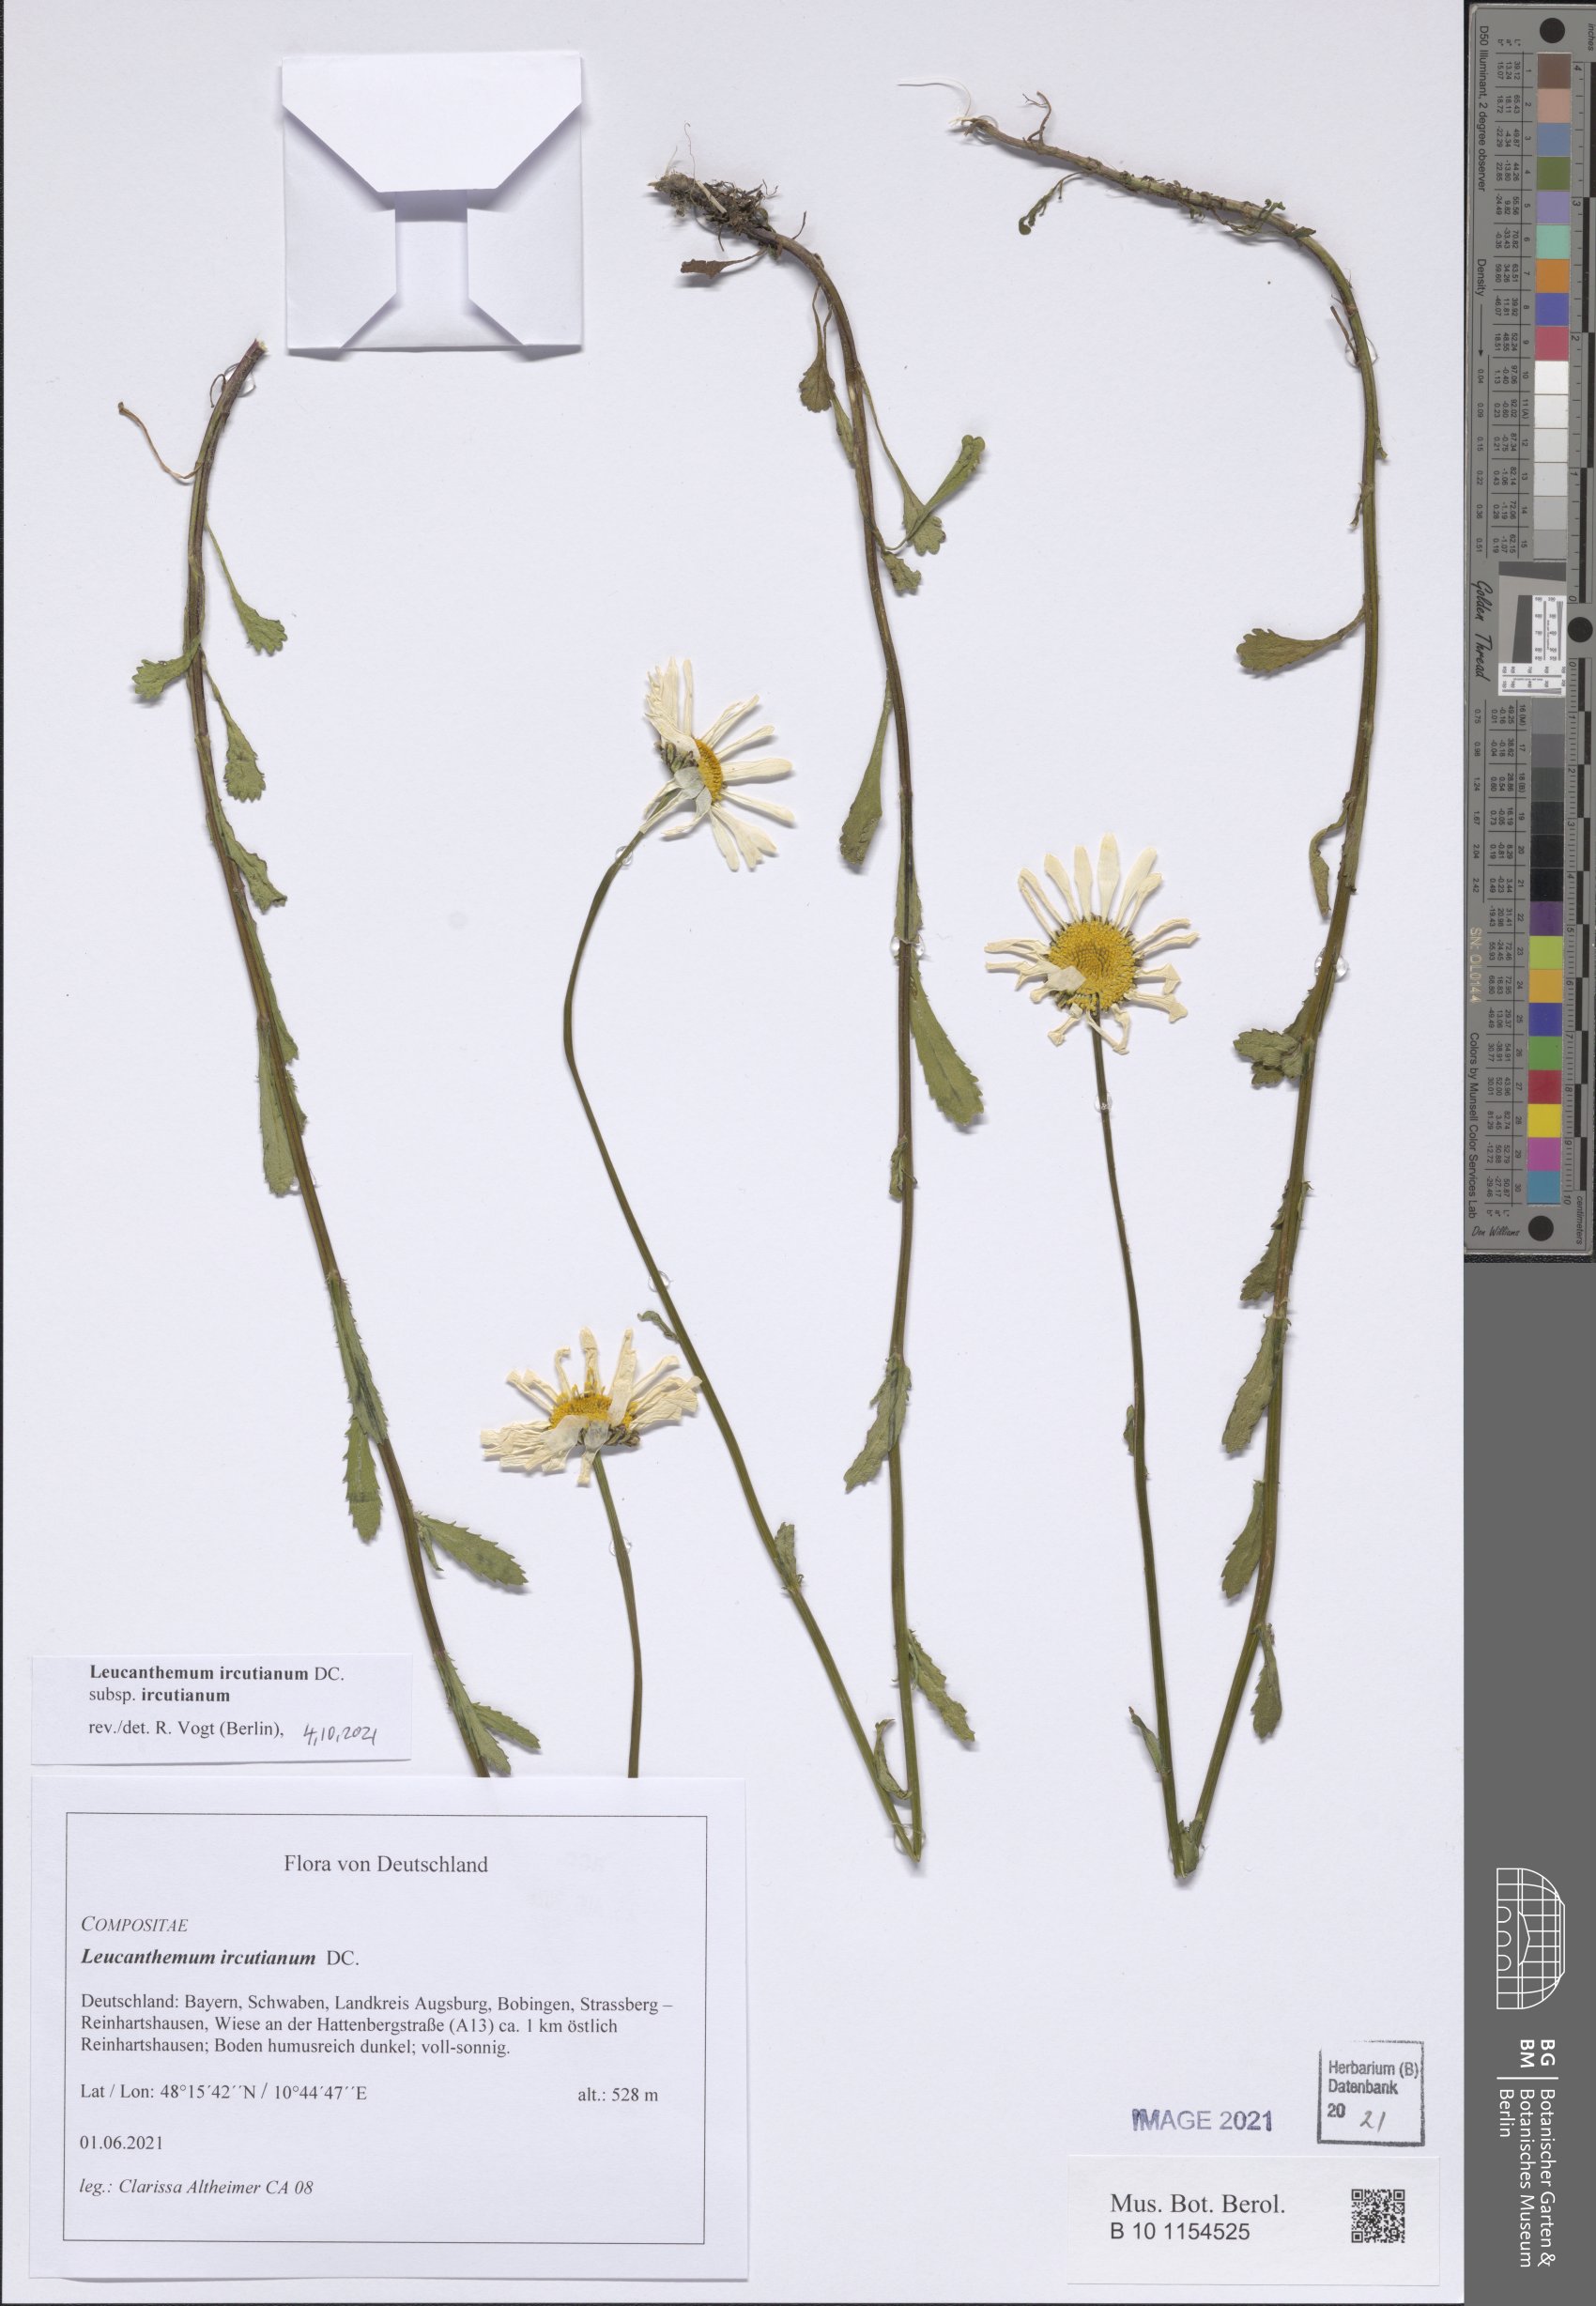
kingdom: Plantae
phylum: Tracheophyta
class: Magnoliopsida
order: Asterales
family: Asteraceae
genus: Leucanthemum
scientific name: Leucanthemum ircutianum
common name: Daisy
